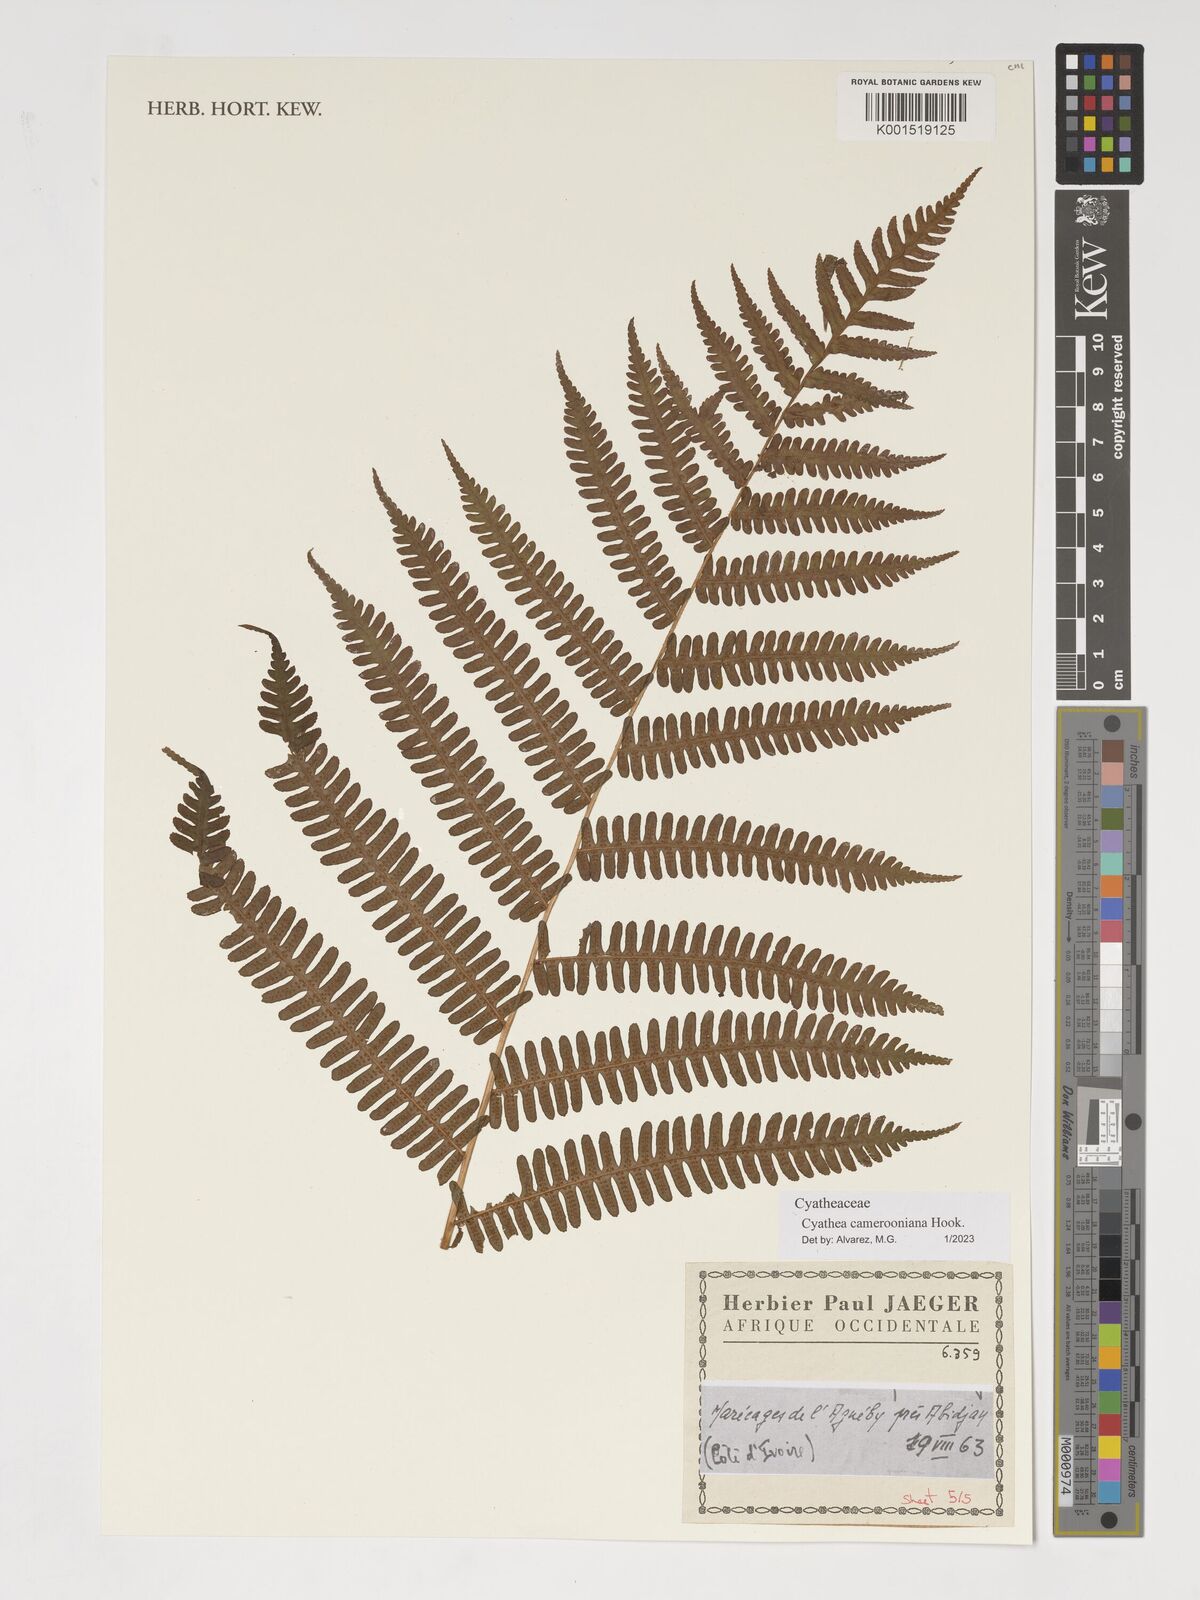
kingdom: Plantae
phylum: Tracheophyta
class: Polypodiopsida
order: Cyatheales
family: Cyatheaceae
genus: Alsophila
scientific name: Alsophila camerooniana
